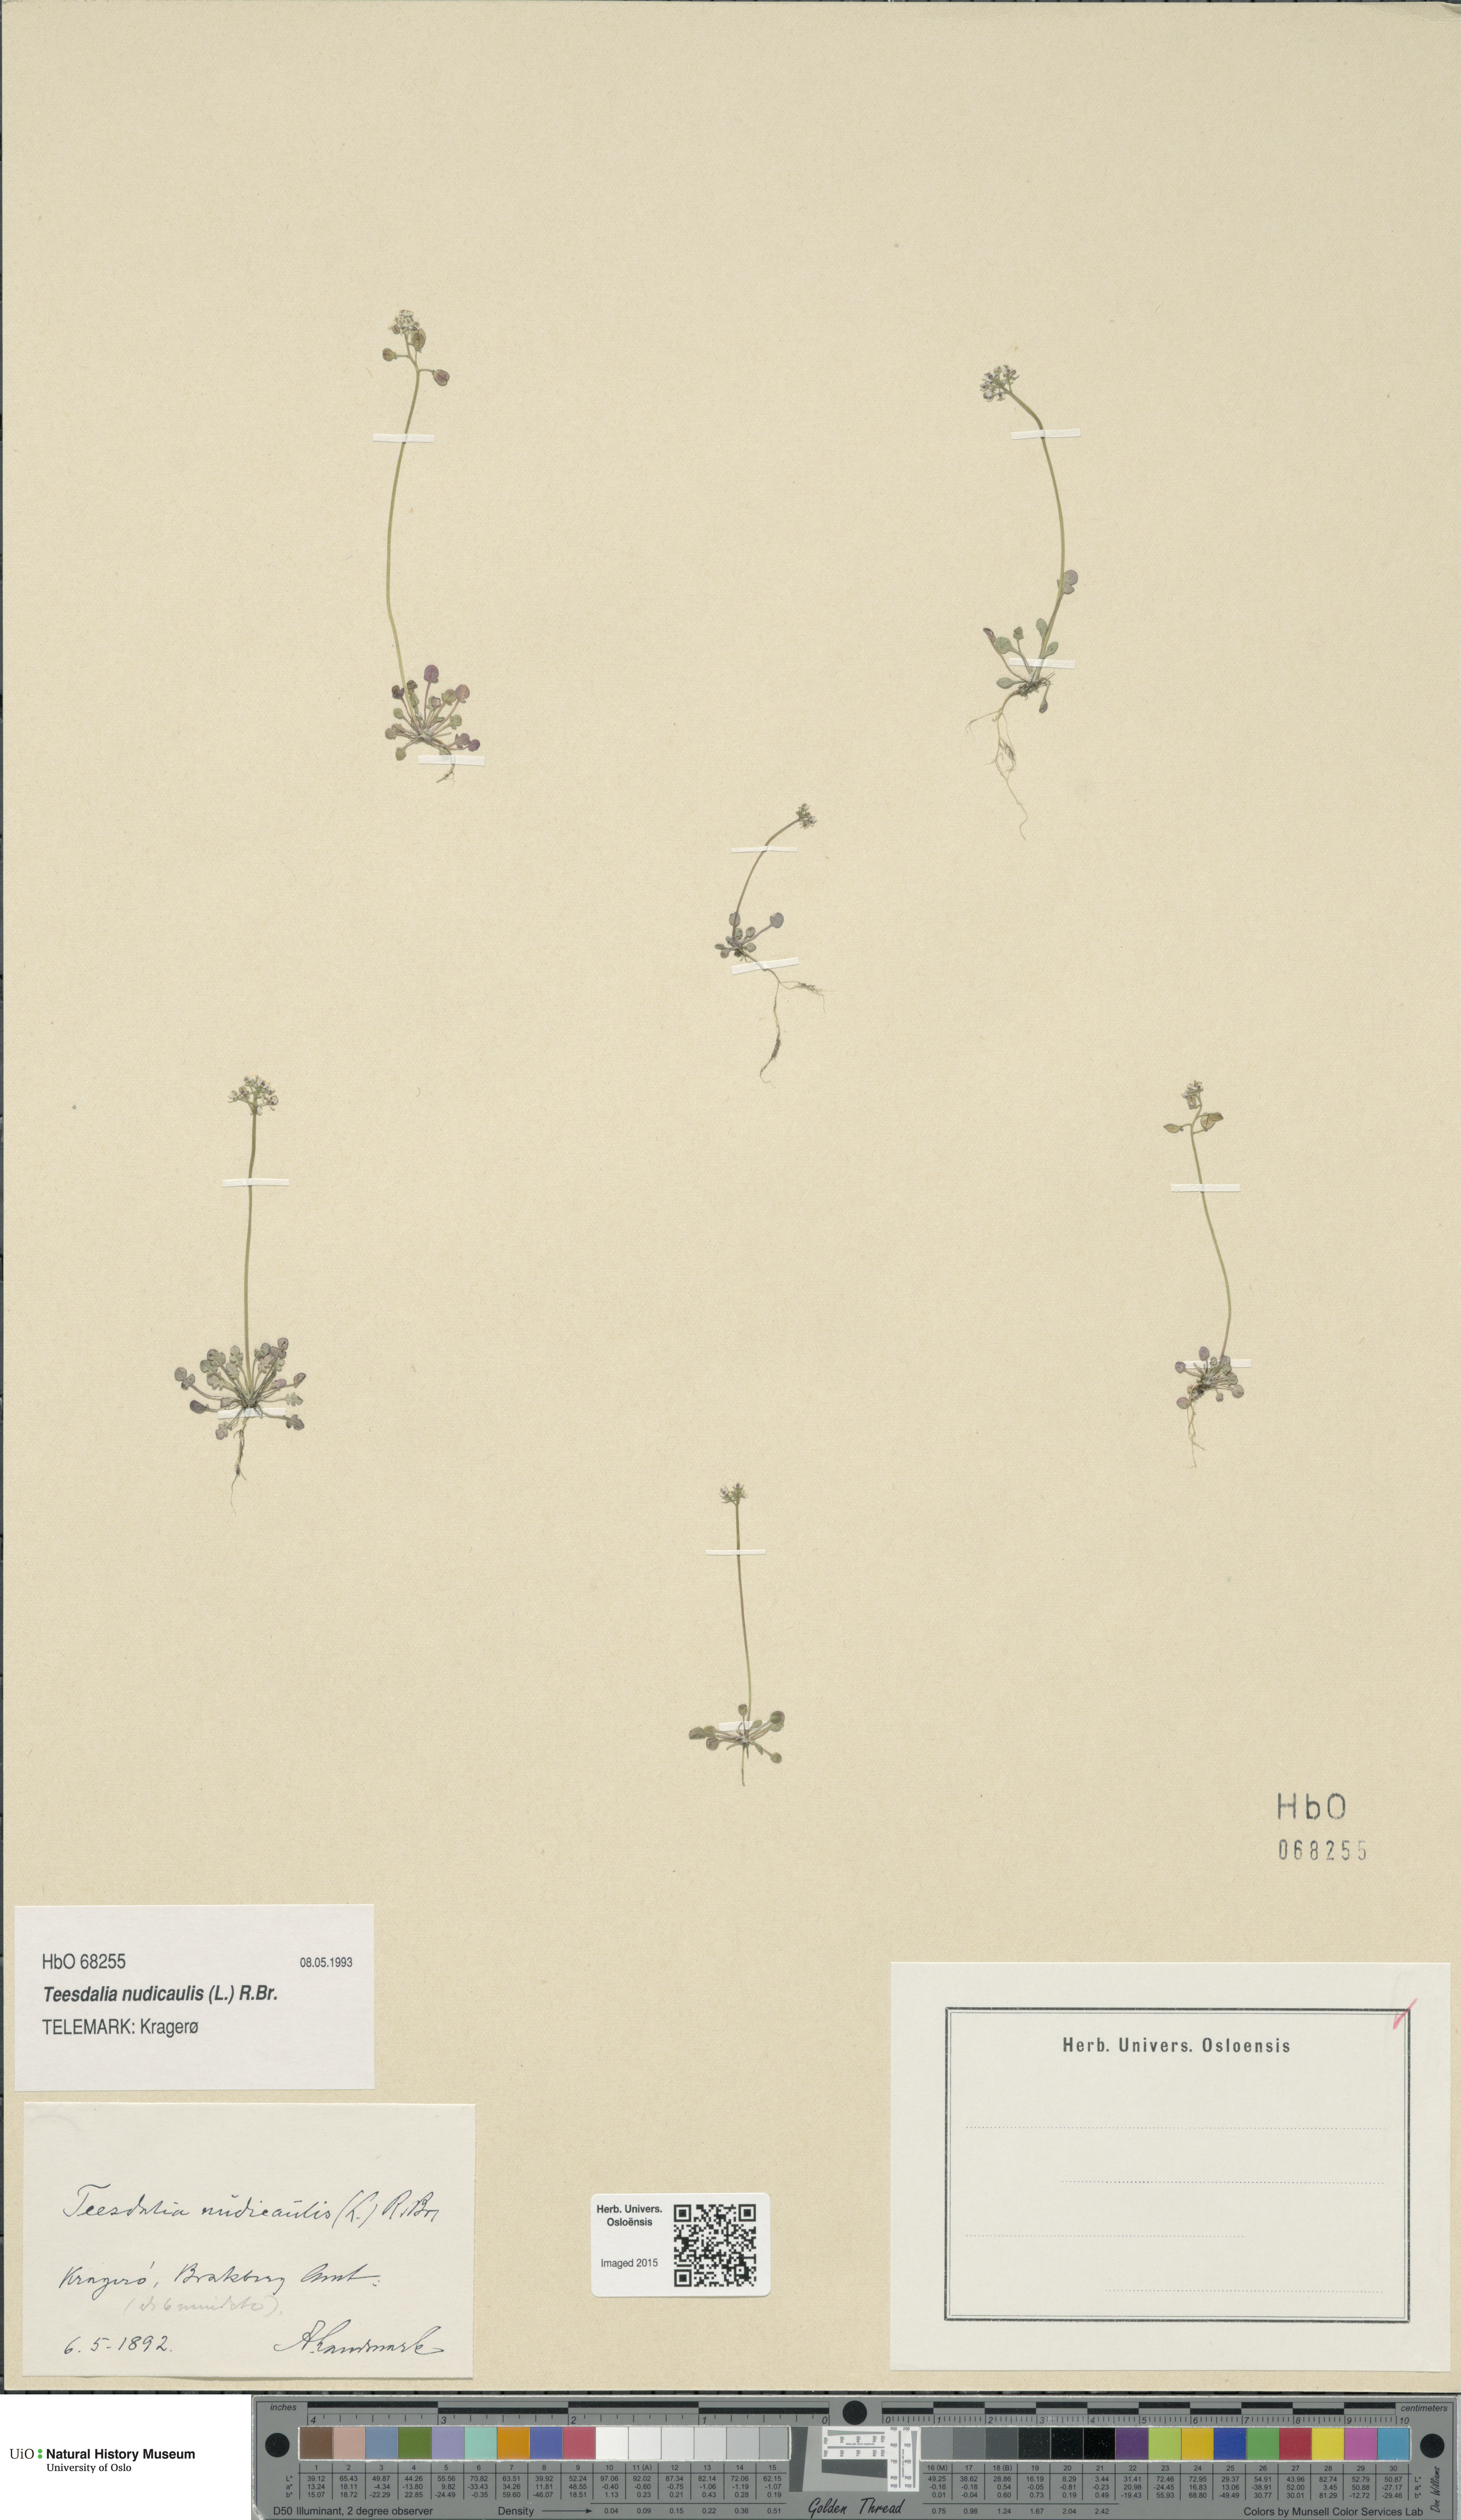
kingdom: Plantae
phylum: Tracheophyta
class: Magnoliopsida
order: Brassicales
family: Brassicaceae
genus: Teesdalia
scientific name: Teesdalia nudicaulis
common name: Shepherd's cress
